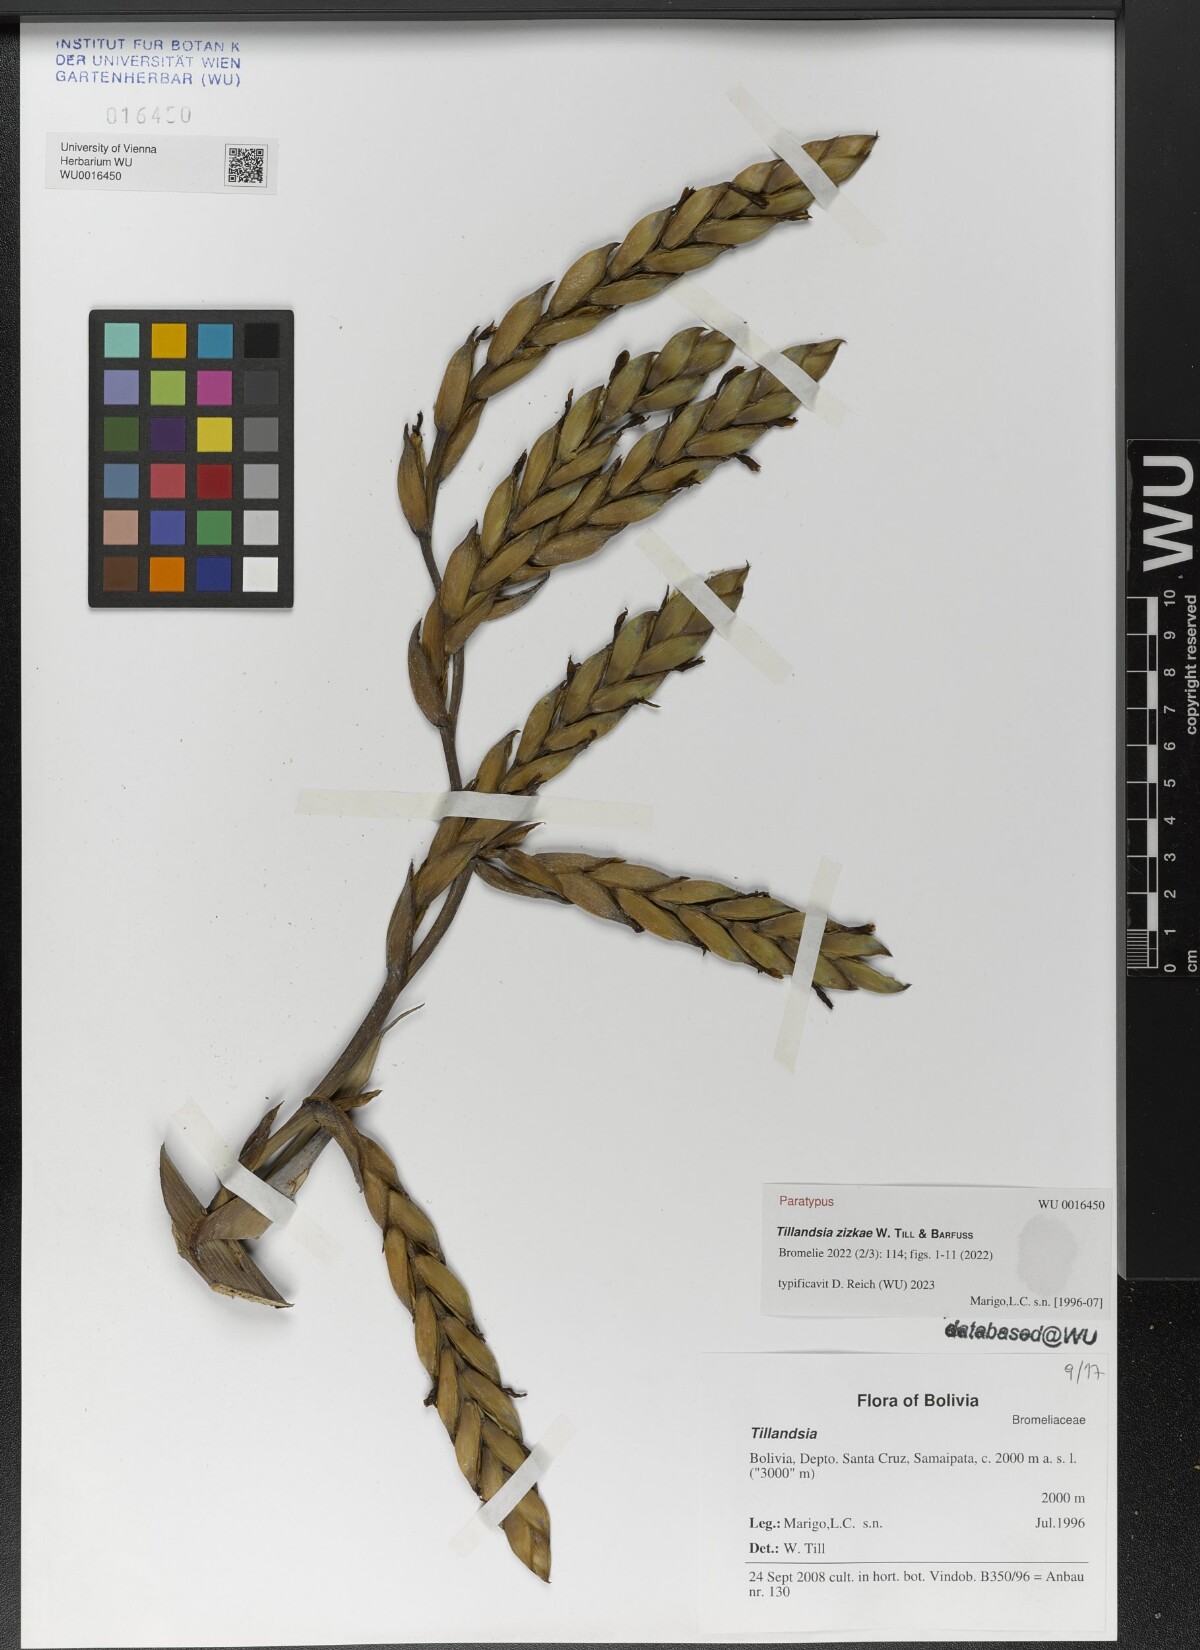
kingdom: Plantae
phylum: Tracheophyta
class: Liliopsida
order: Poales
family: Bromeliaceae
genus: Tillandsia
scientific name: Tillandsia
